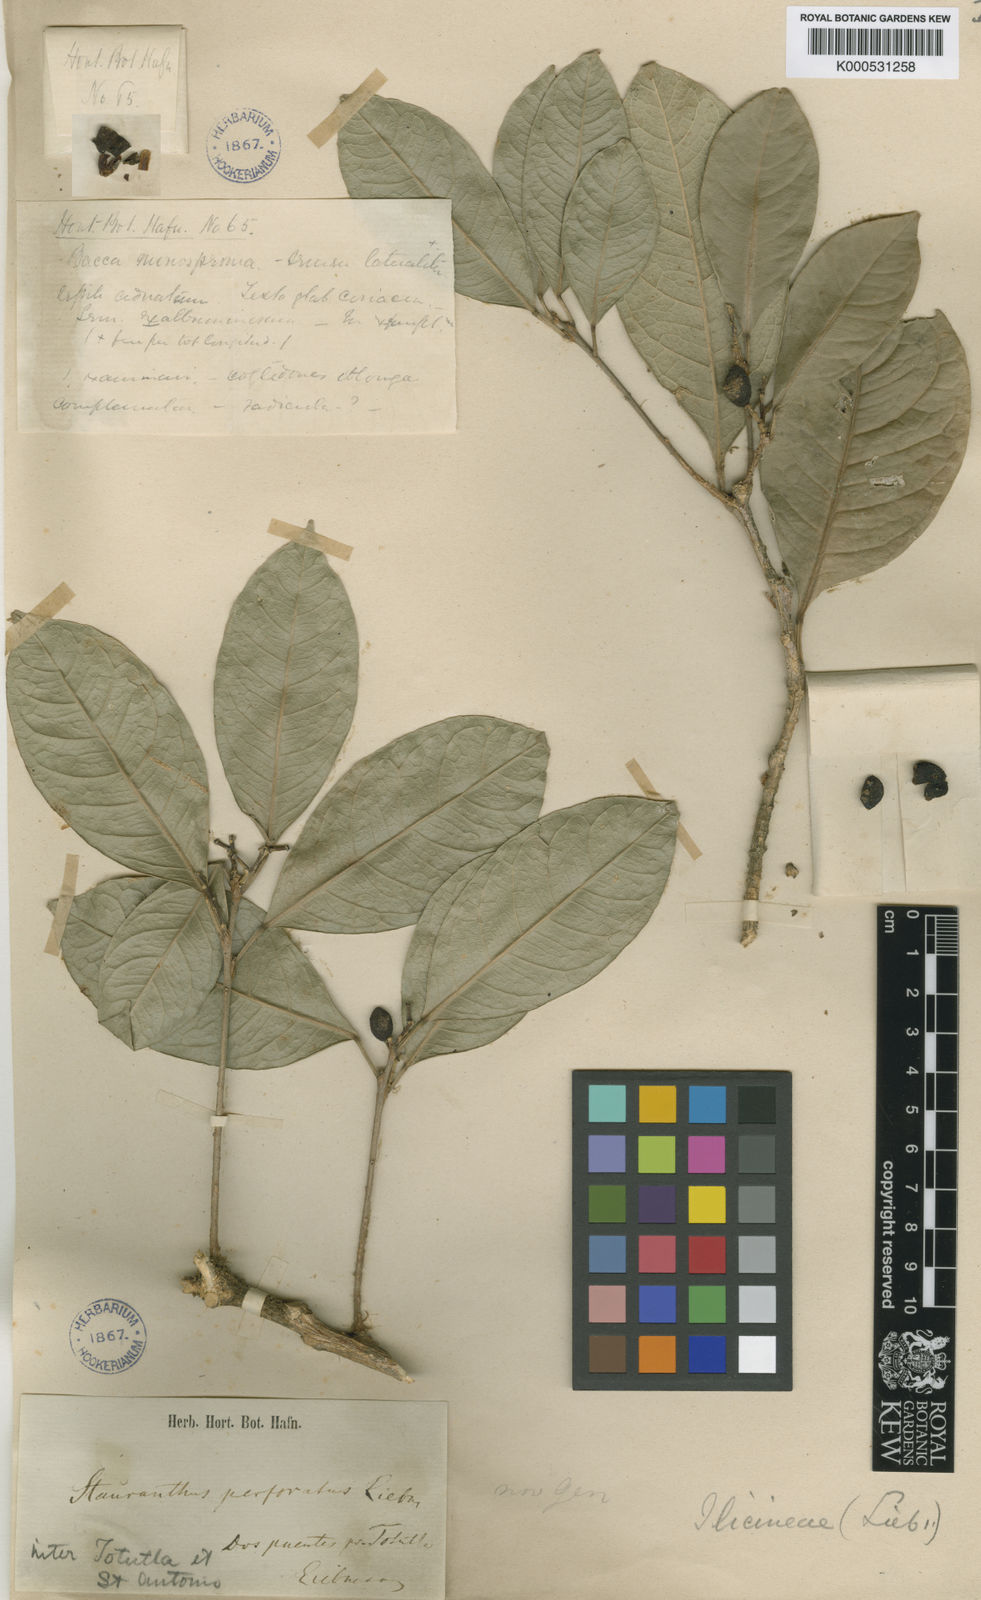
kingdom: Plantae
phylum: Tracheophyta
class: Magnoliopsida
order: Sapindales
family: Rutaceae
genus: Stauranthus
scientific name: Stauranthus perforatus
